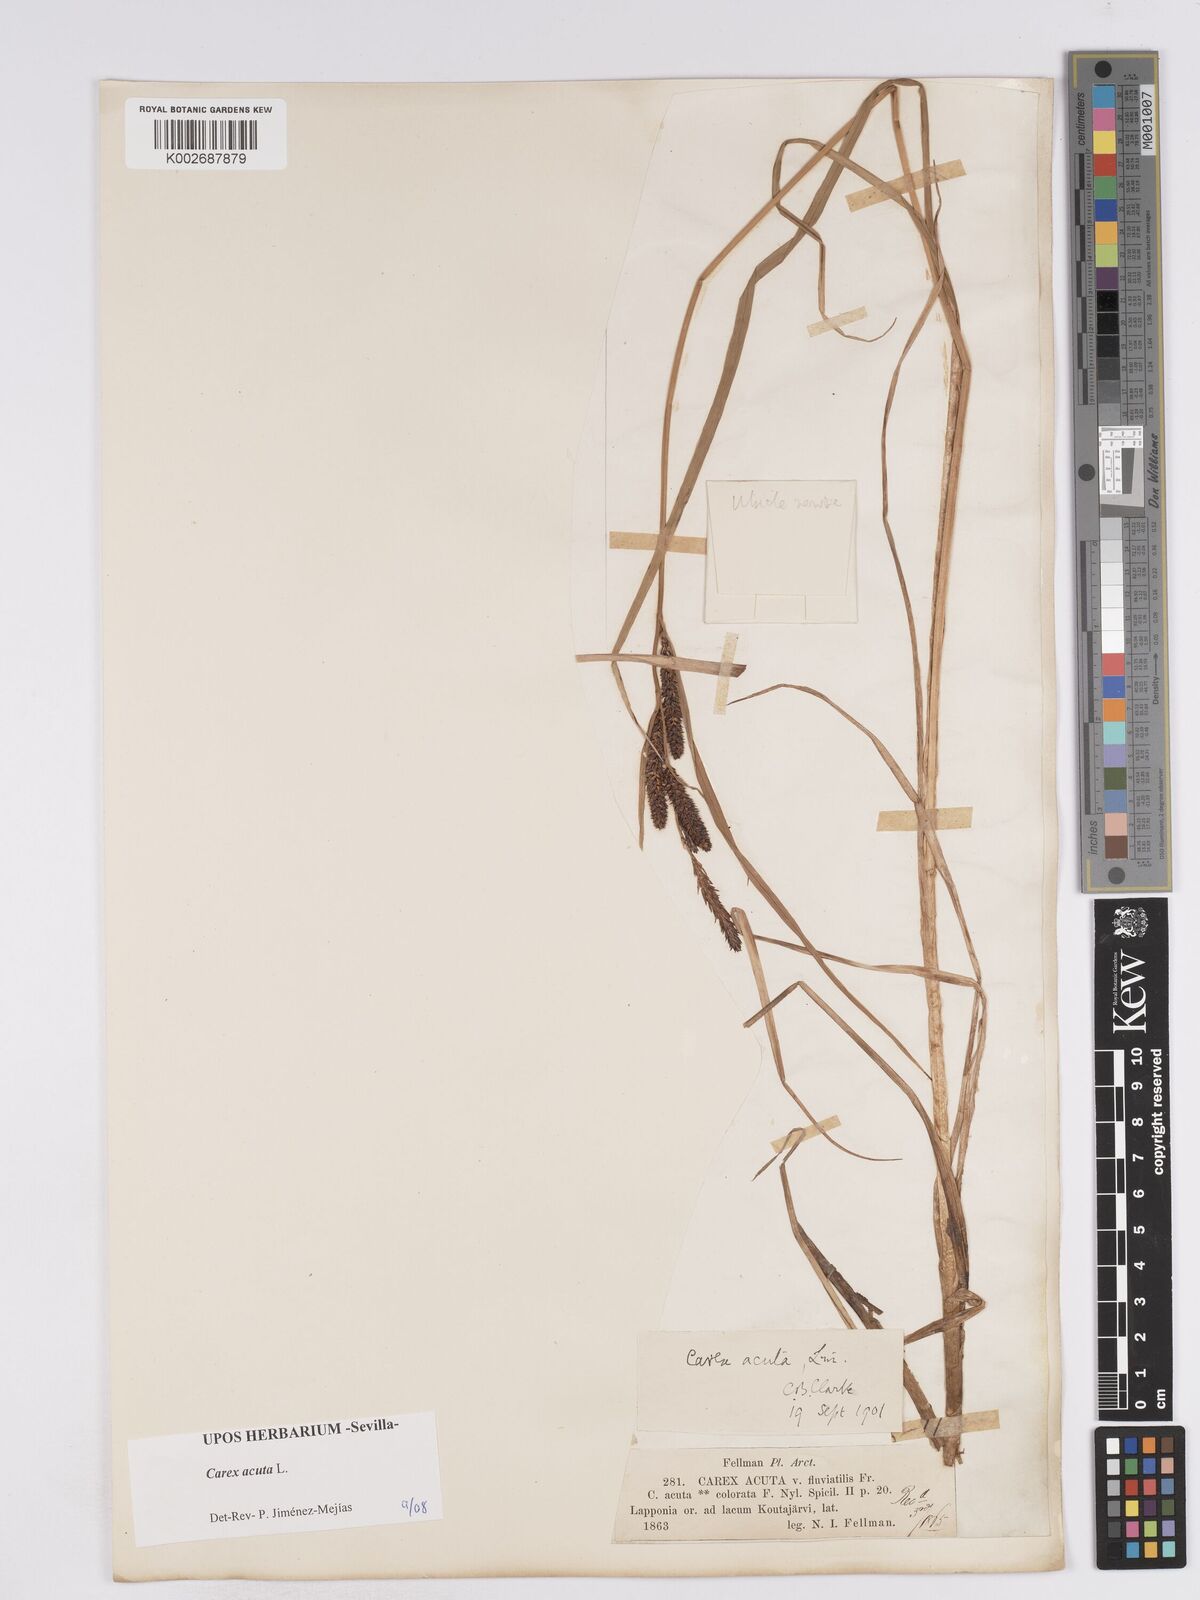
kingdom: Plantae
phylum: Tracheophyta
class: Liliopsida
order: Poales
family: Cyperaceae
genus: Carex
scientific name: Carex acuta
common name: Slender tufted-sedge
